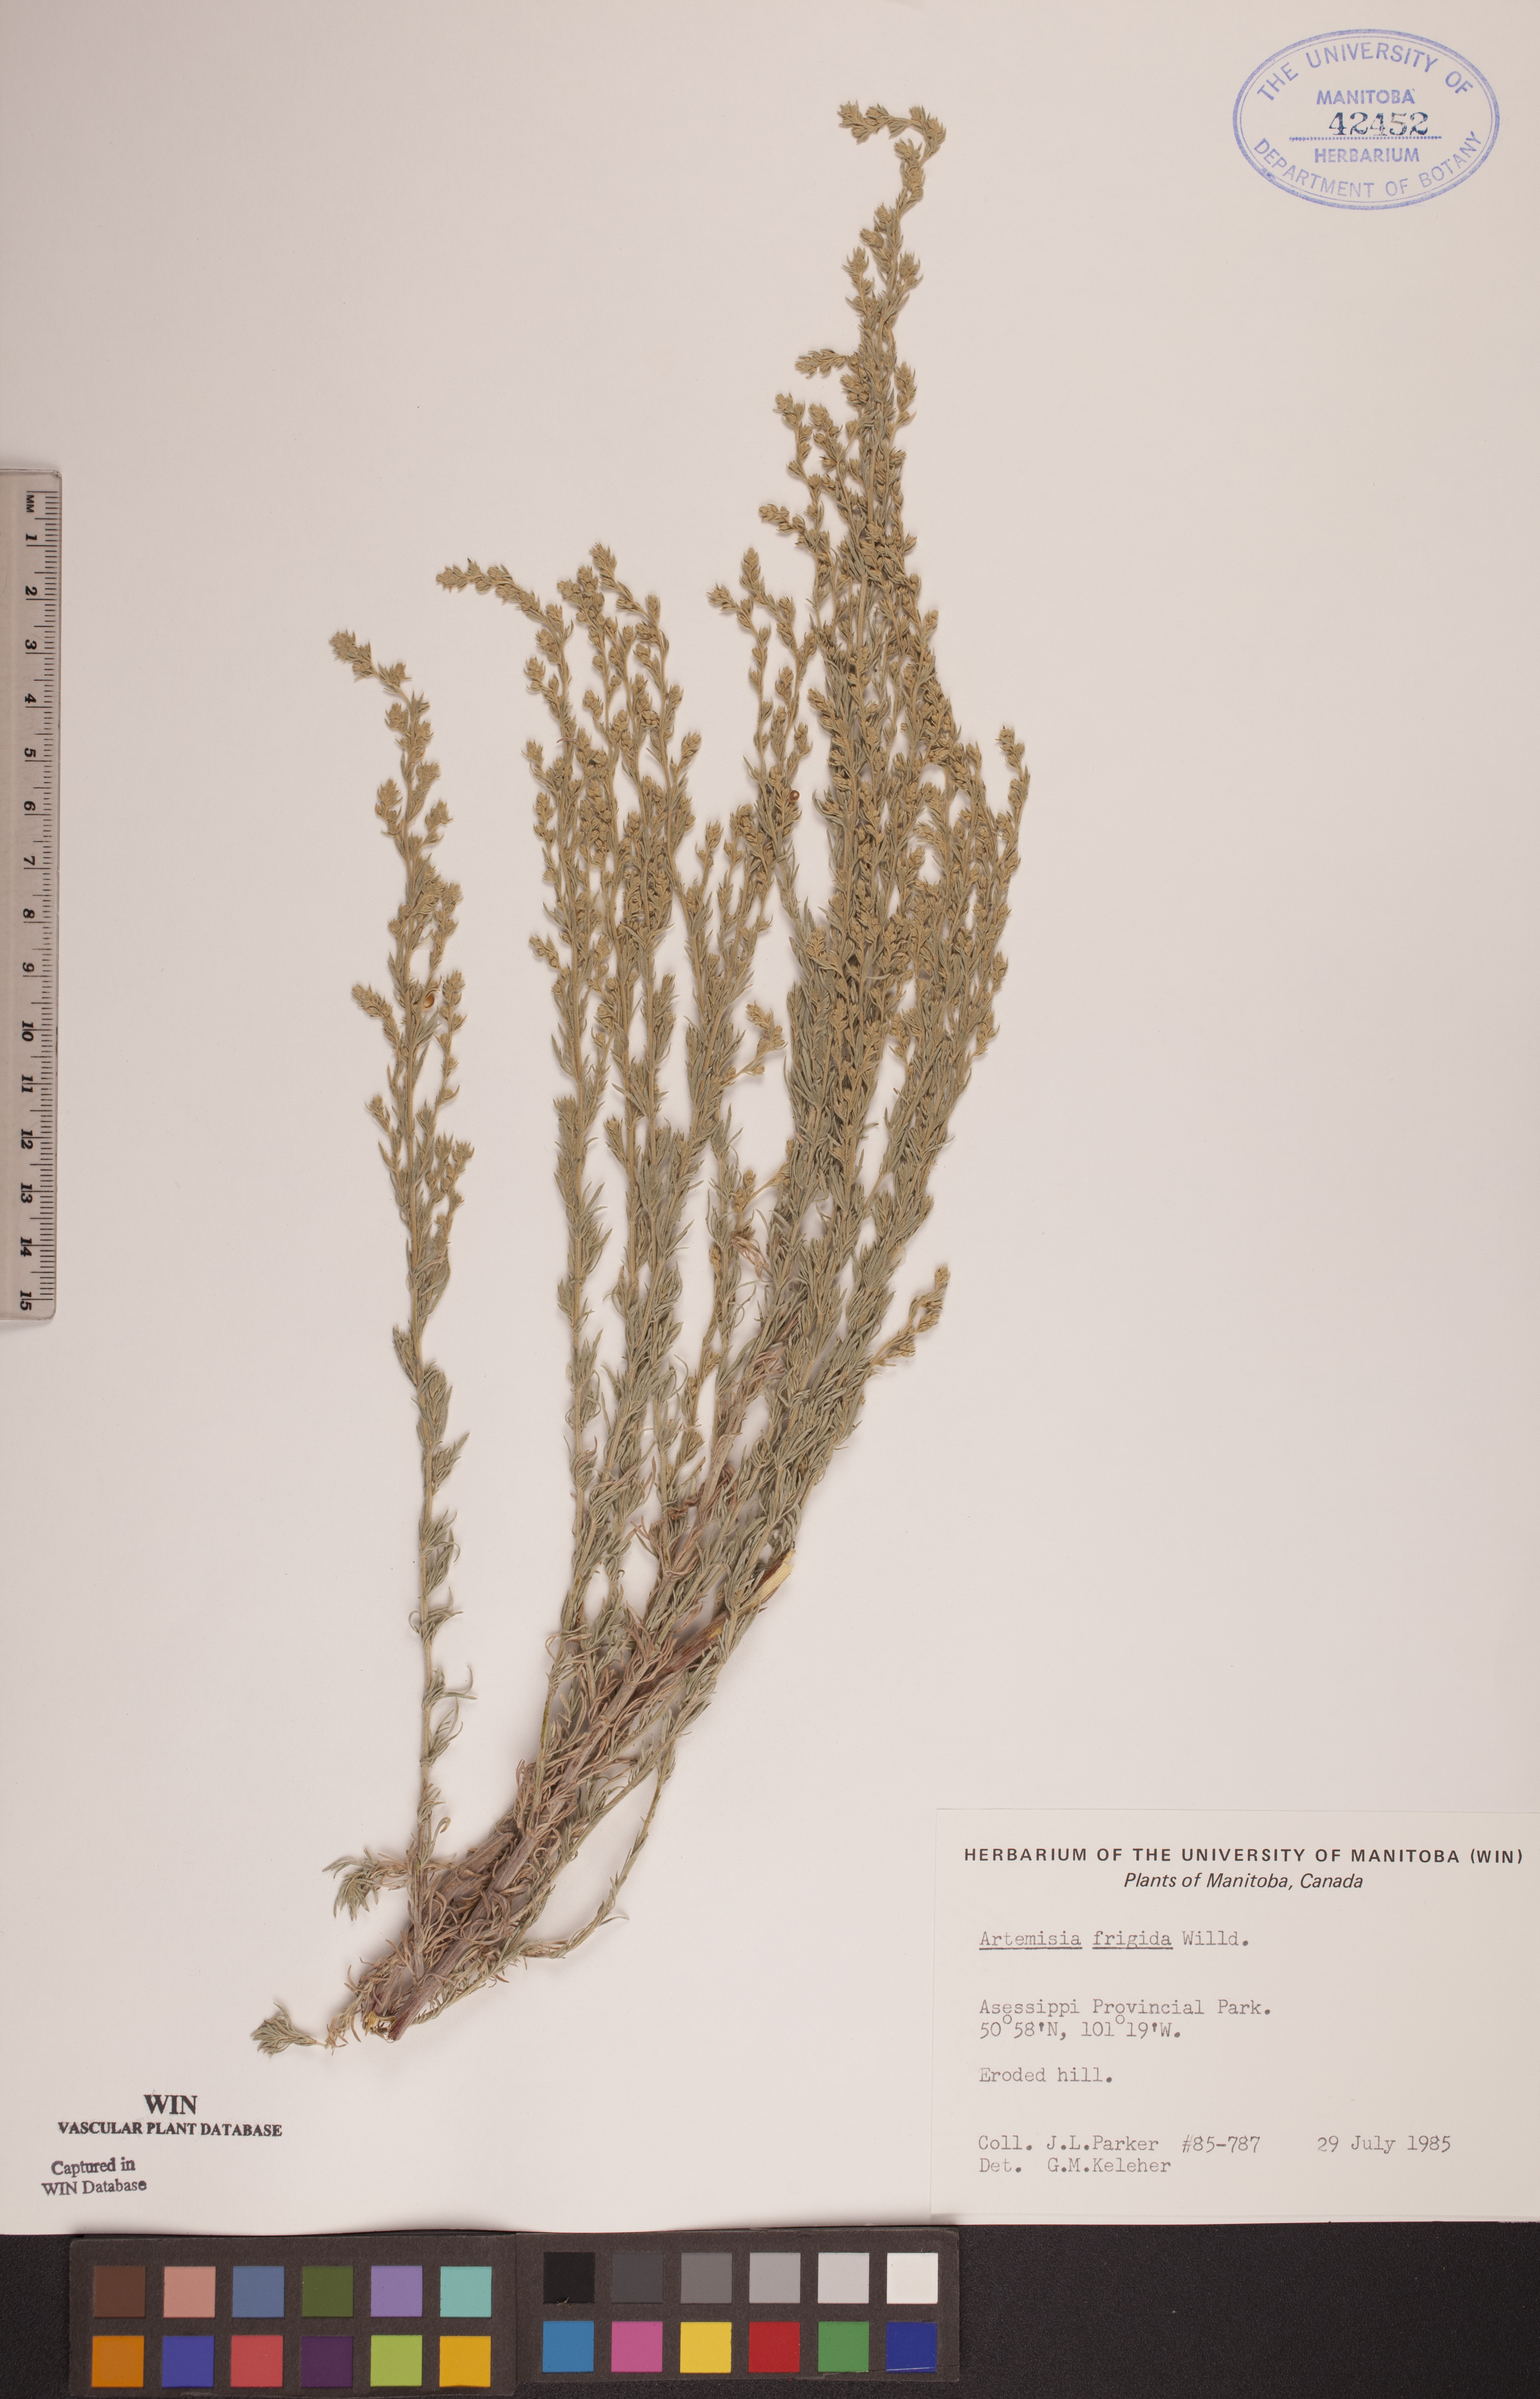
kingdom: Plantae
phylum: Tracheophyta
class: Magnoliopsida
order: Asterales
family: Asteraceae
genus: Artemisia
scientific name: Artemisia frigida
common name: Prairie sagewort
